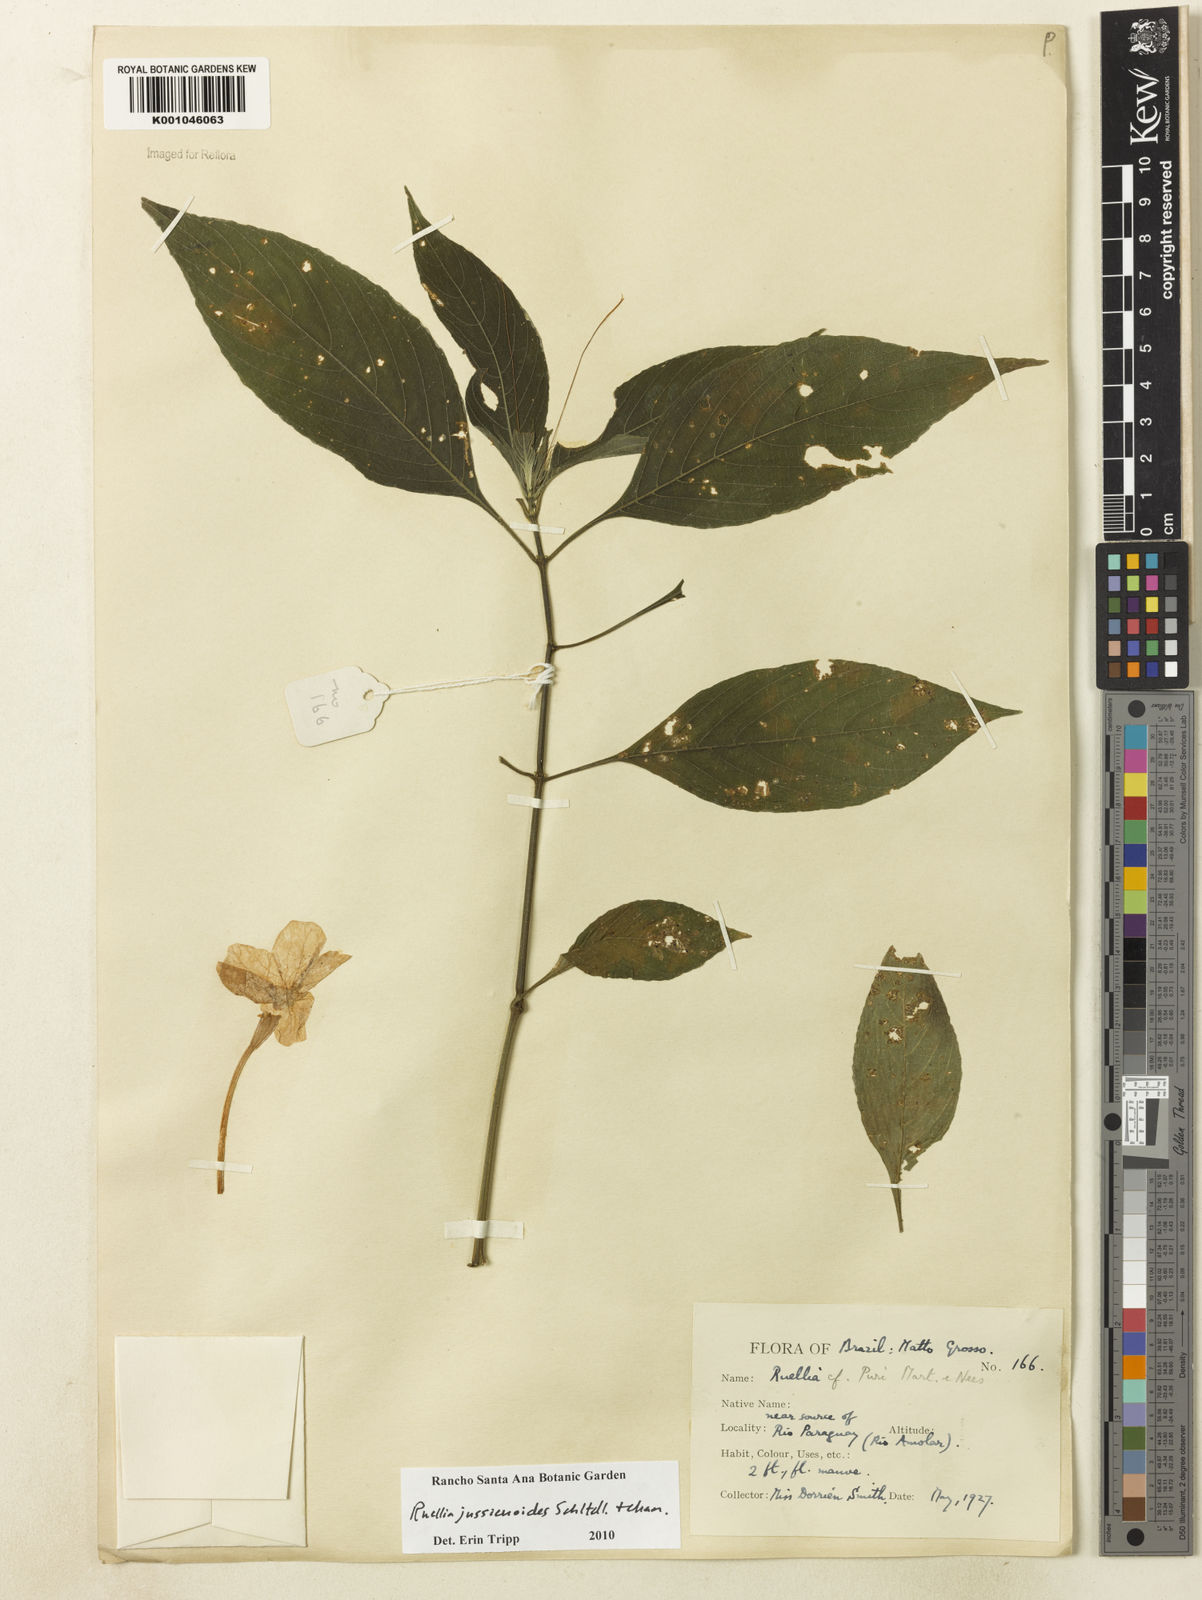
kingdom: Plantae
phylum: Tracheophyta
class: Magnoliopsida
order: Lamiales
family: Acanthaceae
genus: Ruellia
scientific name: Ruellia jussieuoides
